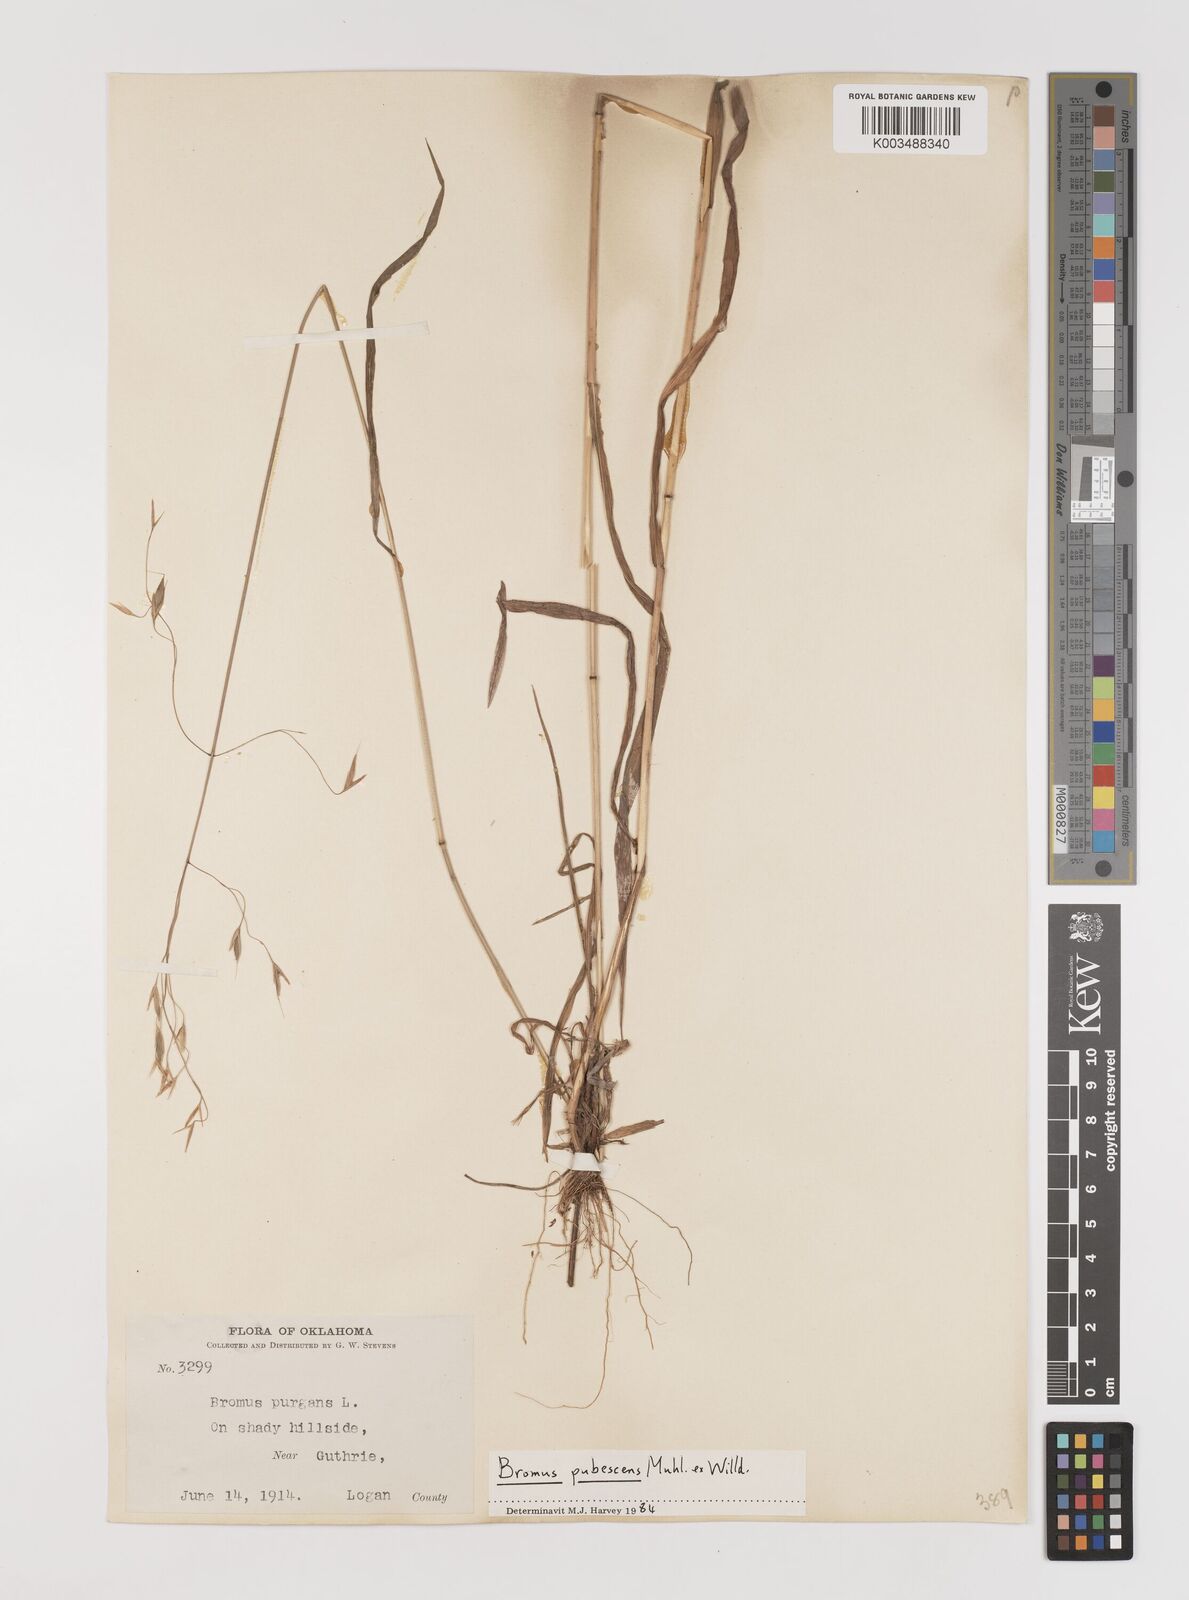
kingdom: Plantae
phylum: Tracheophyta
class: Liliopsida
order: Poales
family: Poaceae
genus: Bromus
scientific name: Bromus pubescens
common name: Hairy wood brome grass
